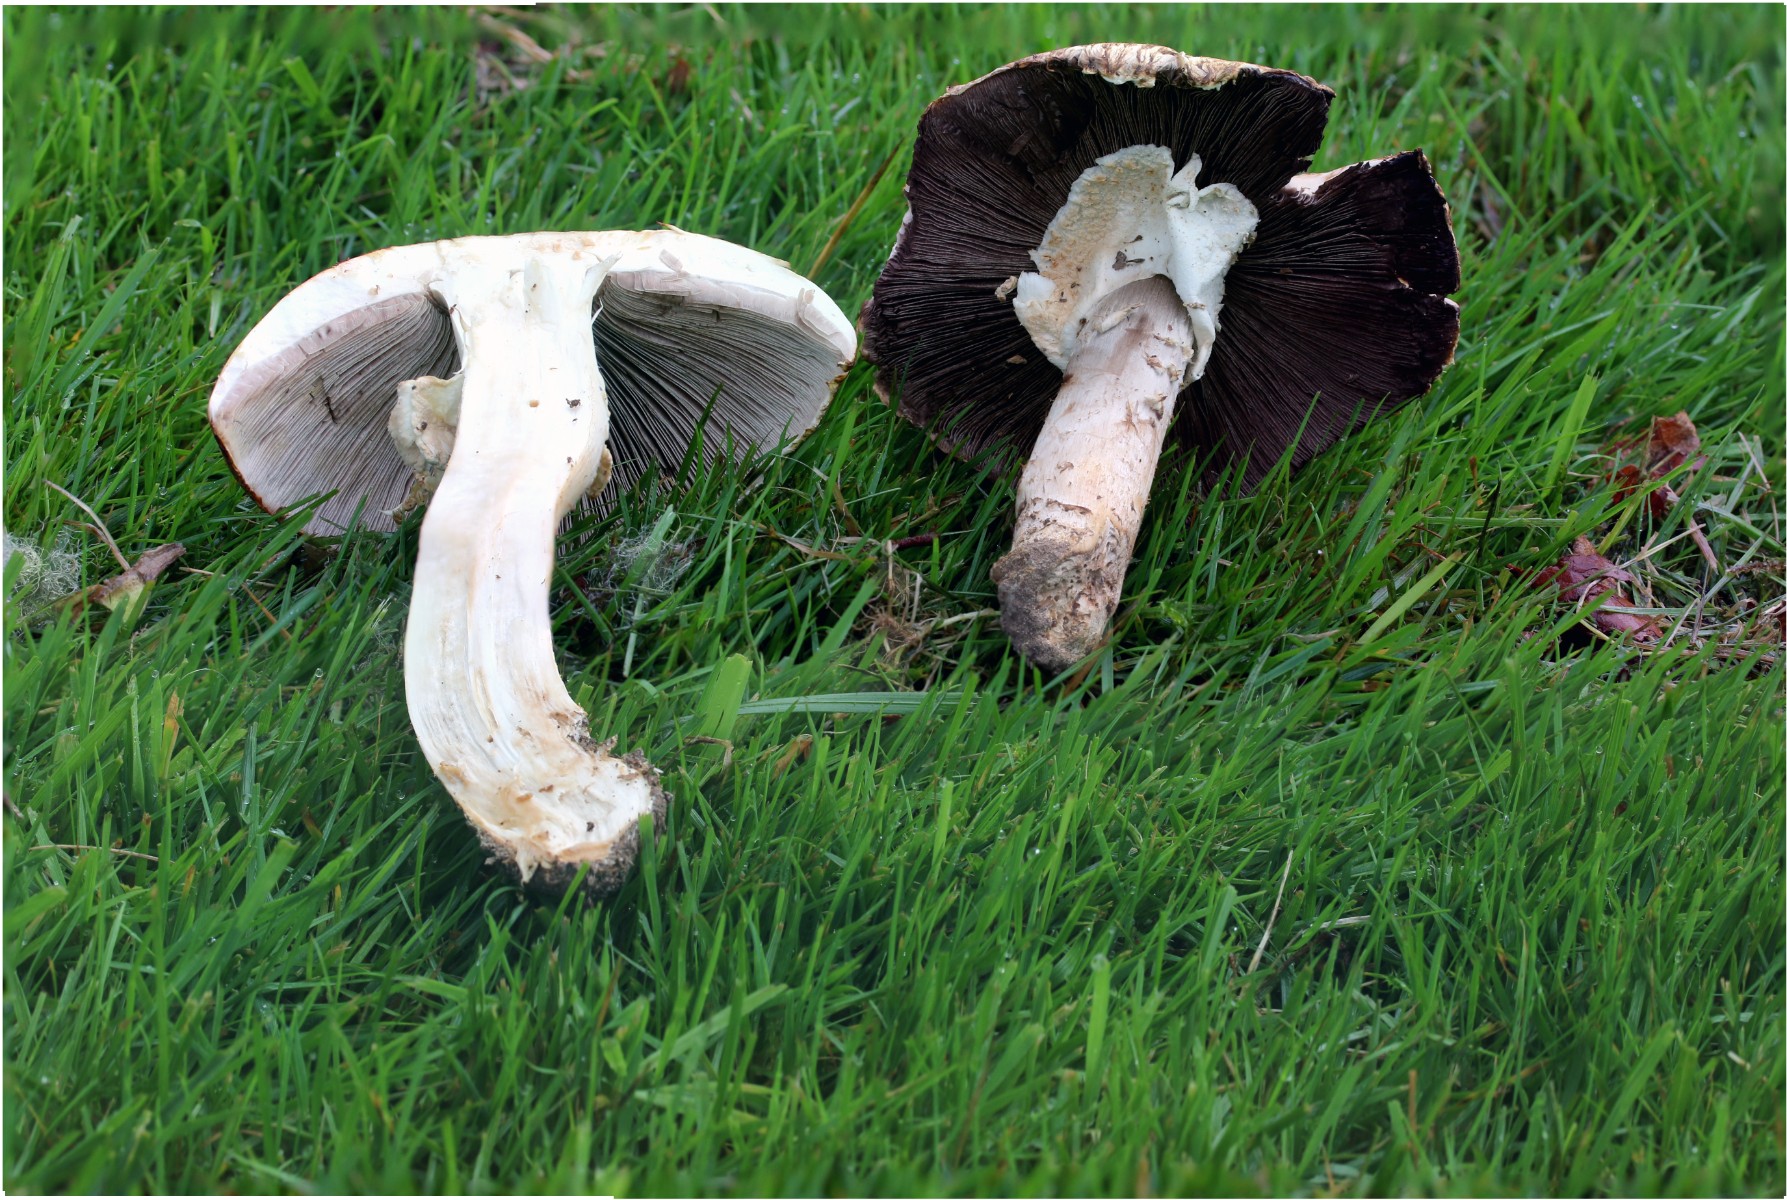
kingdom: Fungi
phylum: Basidiomycota
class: Agaricomycetes
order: Agaricales
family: Agaricaceae
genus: Agaricus
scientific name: Agaricus
